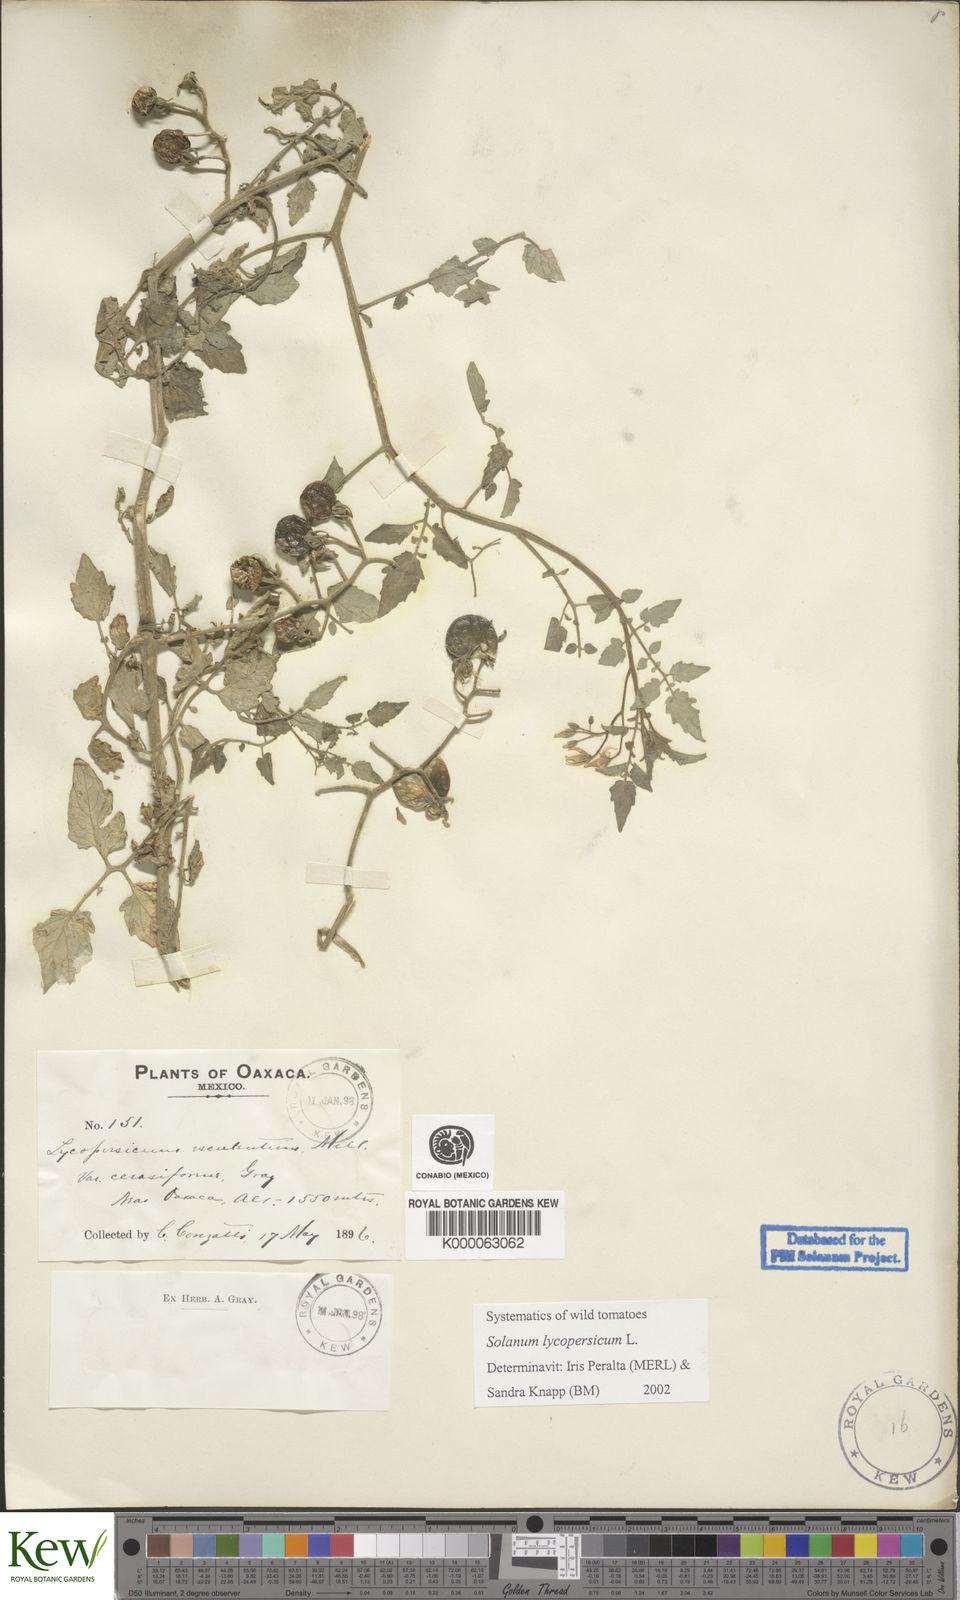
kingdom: Plantae
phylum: Tracheophyta
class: Magnoliopsida
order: Solanales
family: Solanaceae
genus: Lycopersicon
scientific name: Lycopersicon
